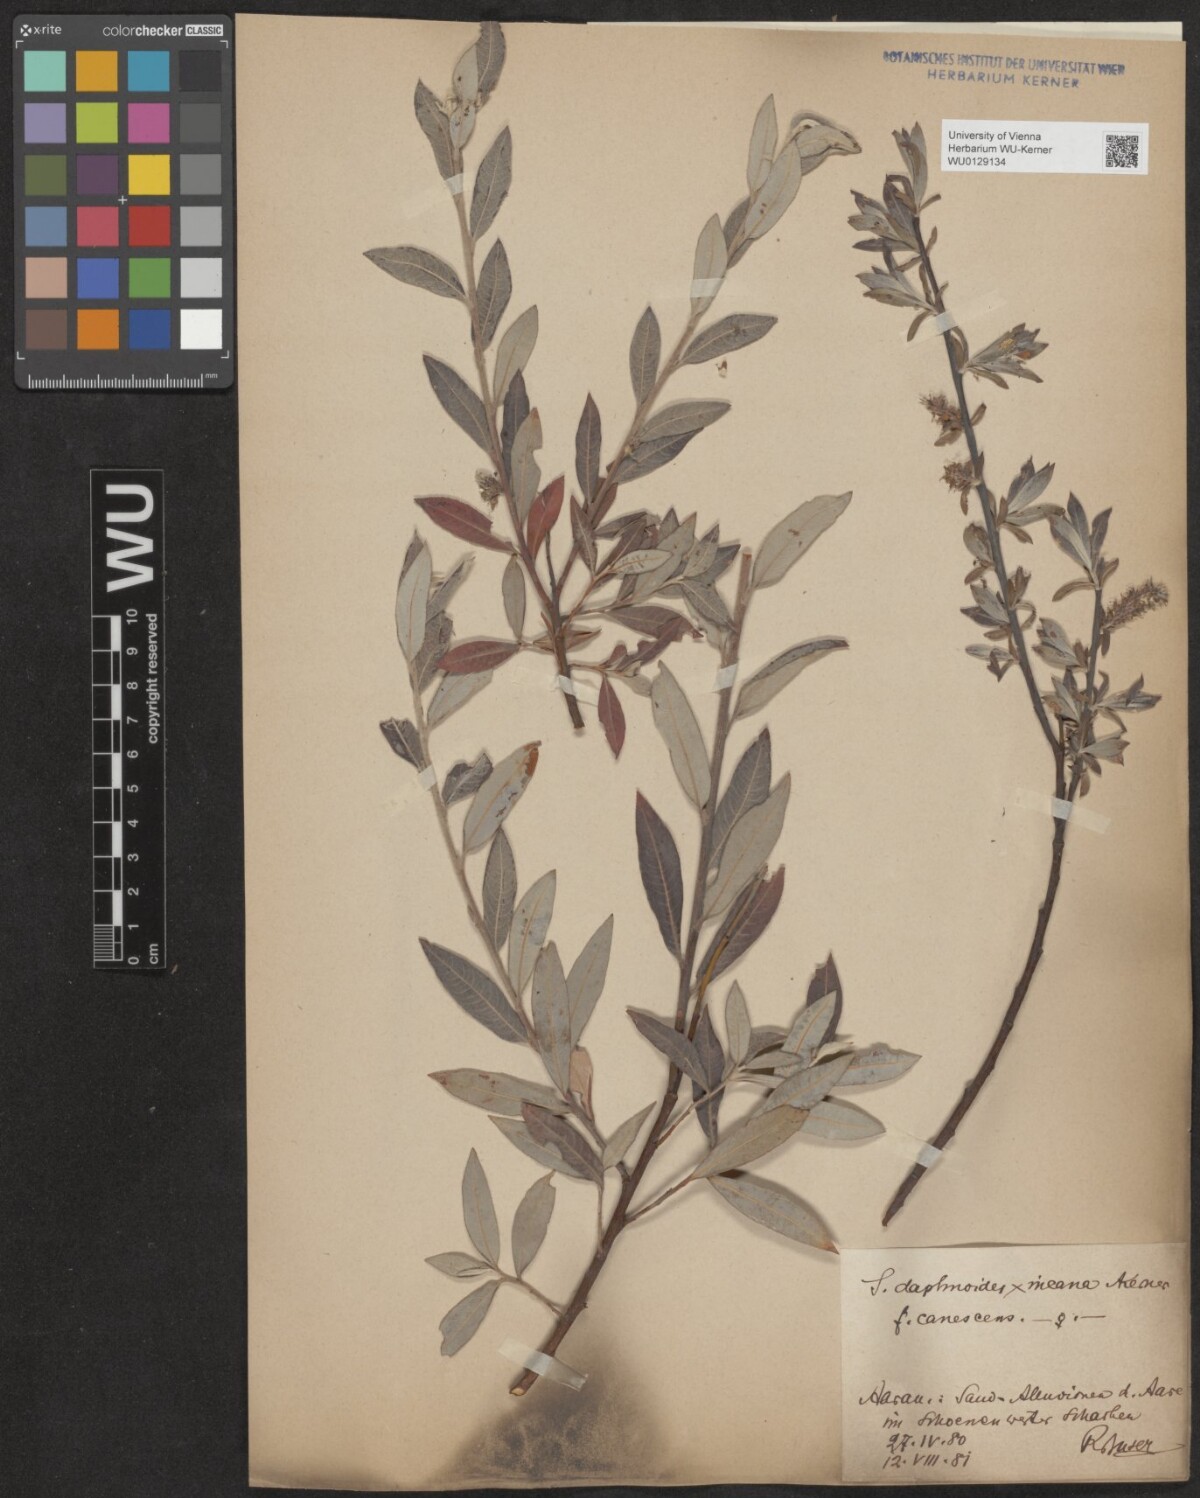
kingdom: Plantae
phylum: Tracheophyta
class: Magnoliopsida
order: Malpighiales
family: Salicaceae
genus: Salix
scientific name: Salix
